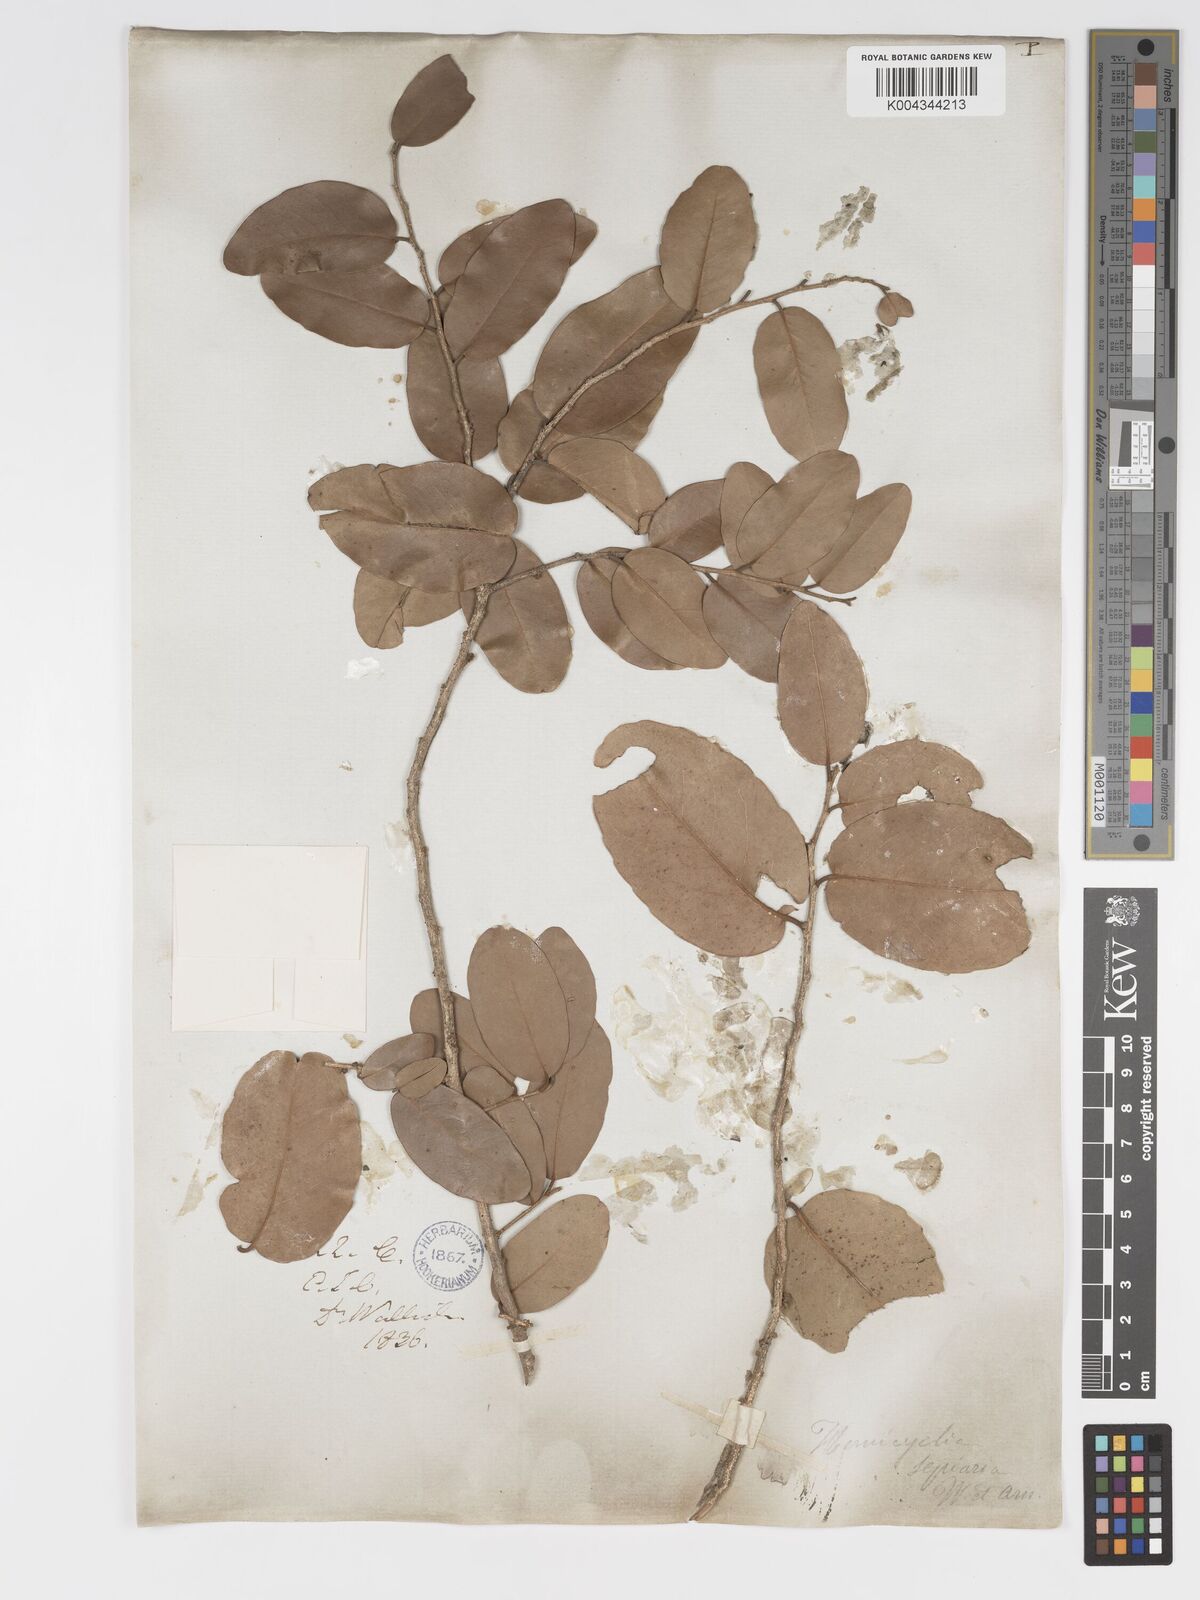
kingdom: Plantae
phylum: Tracheophyta
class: Magnoliopsida
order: Malpighiales
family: Putranjivaceae
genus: Drypetes
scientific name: Drypetes sepiaria
